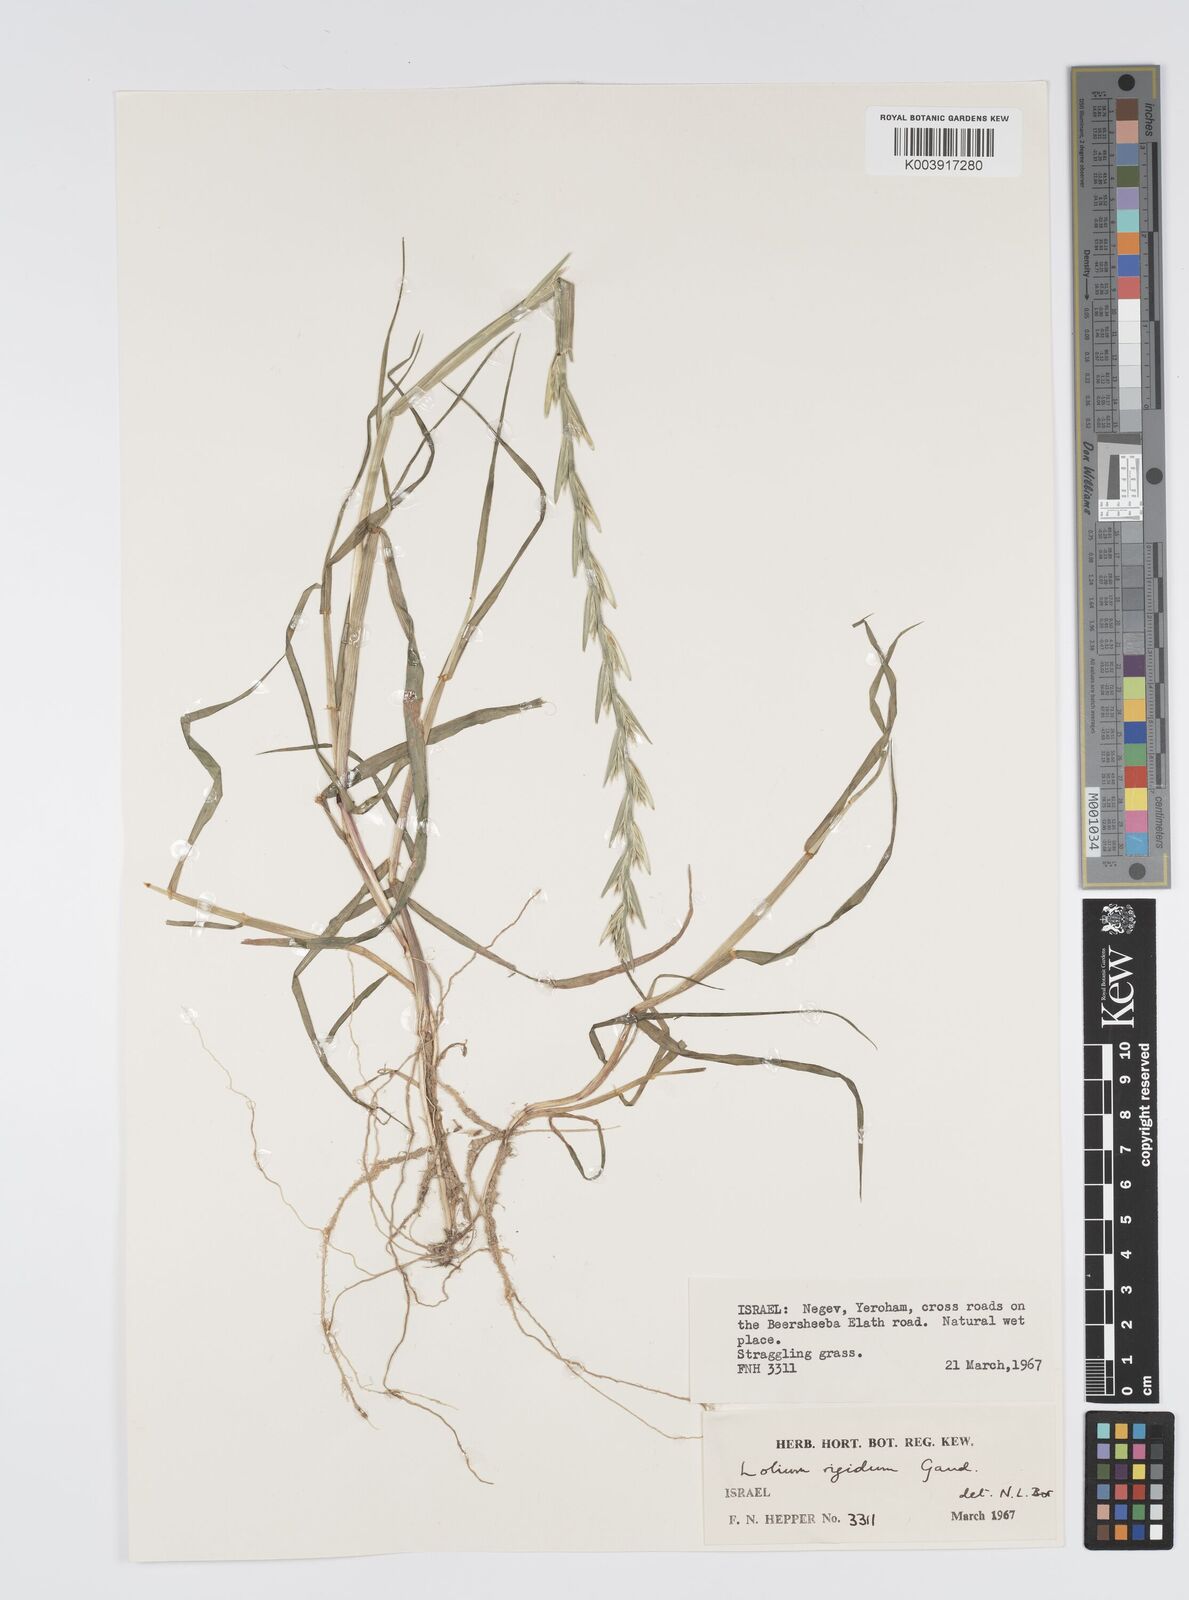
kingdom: Plantae
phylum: Tracheophyta
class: Liliopsida
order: Poales
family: Poaceae
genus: Lolium
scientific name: Lolium rigidum
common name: Wimmera ryegrass
